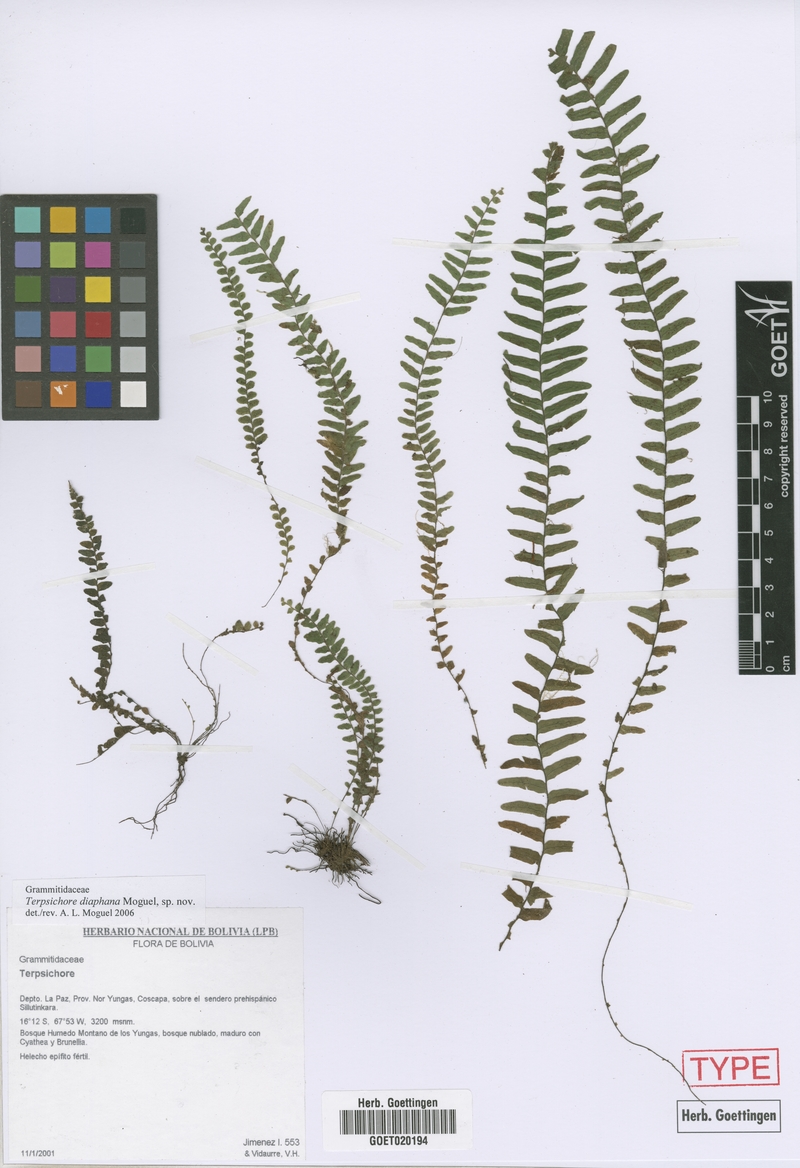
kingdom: Plantae
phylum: Tracheophyta
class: Polypodiopsida
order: Polypodiales
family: Polypodiaceae
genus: Alansmia
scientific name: Alansmia diaphana
